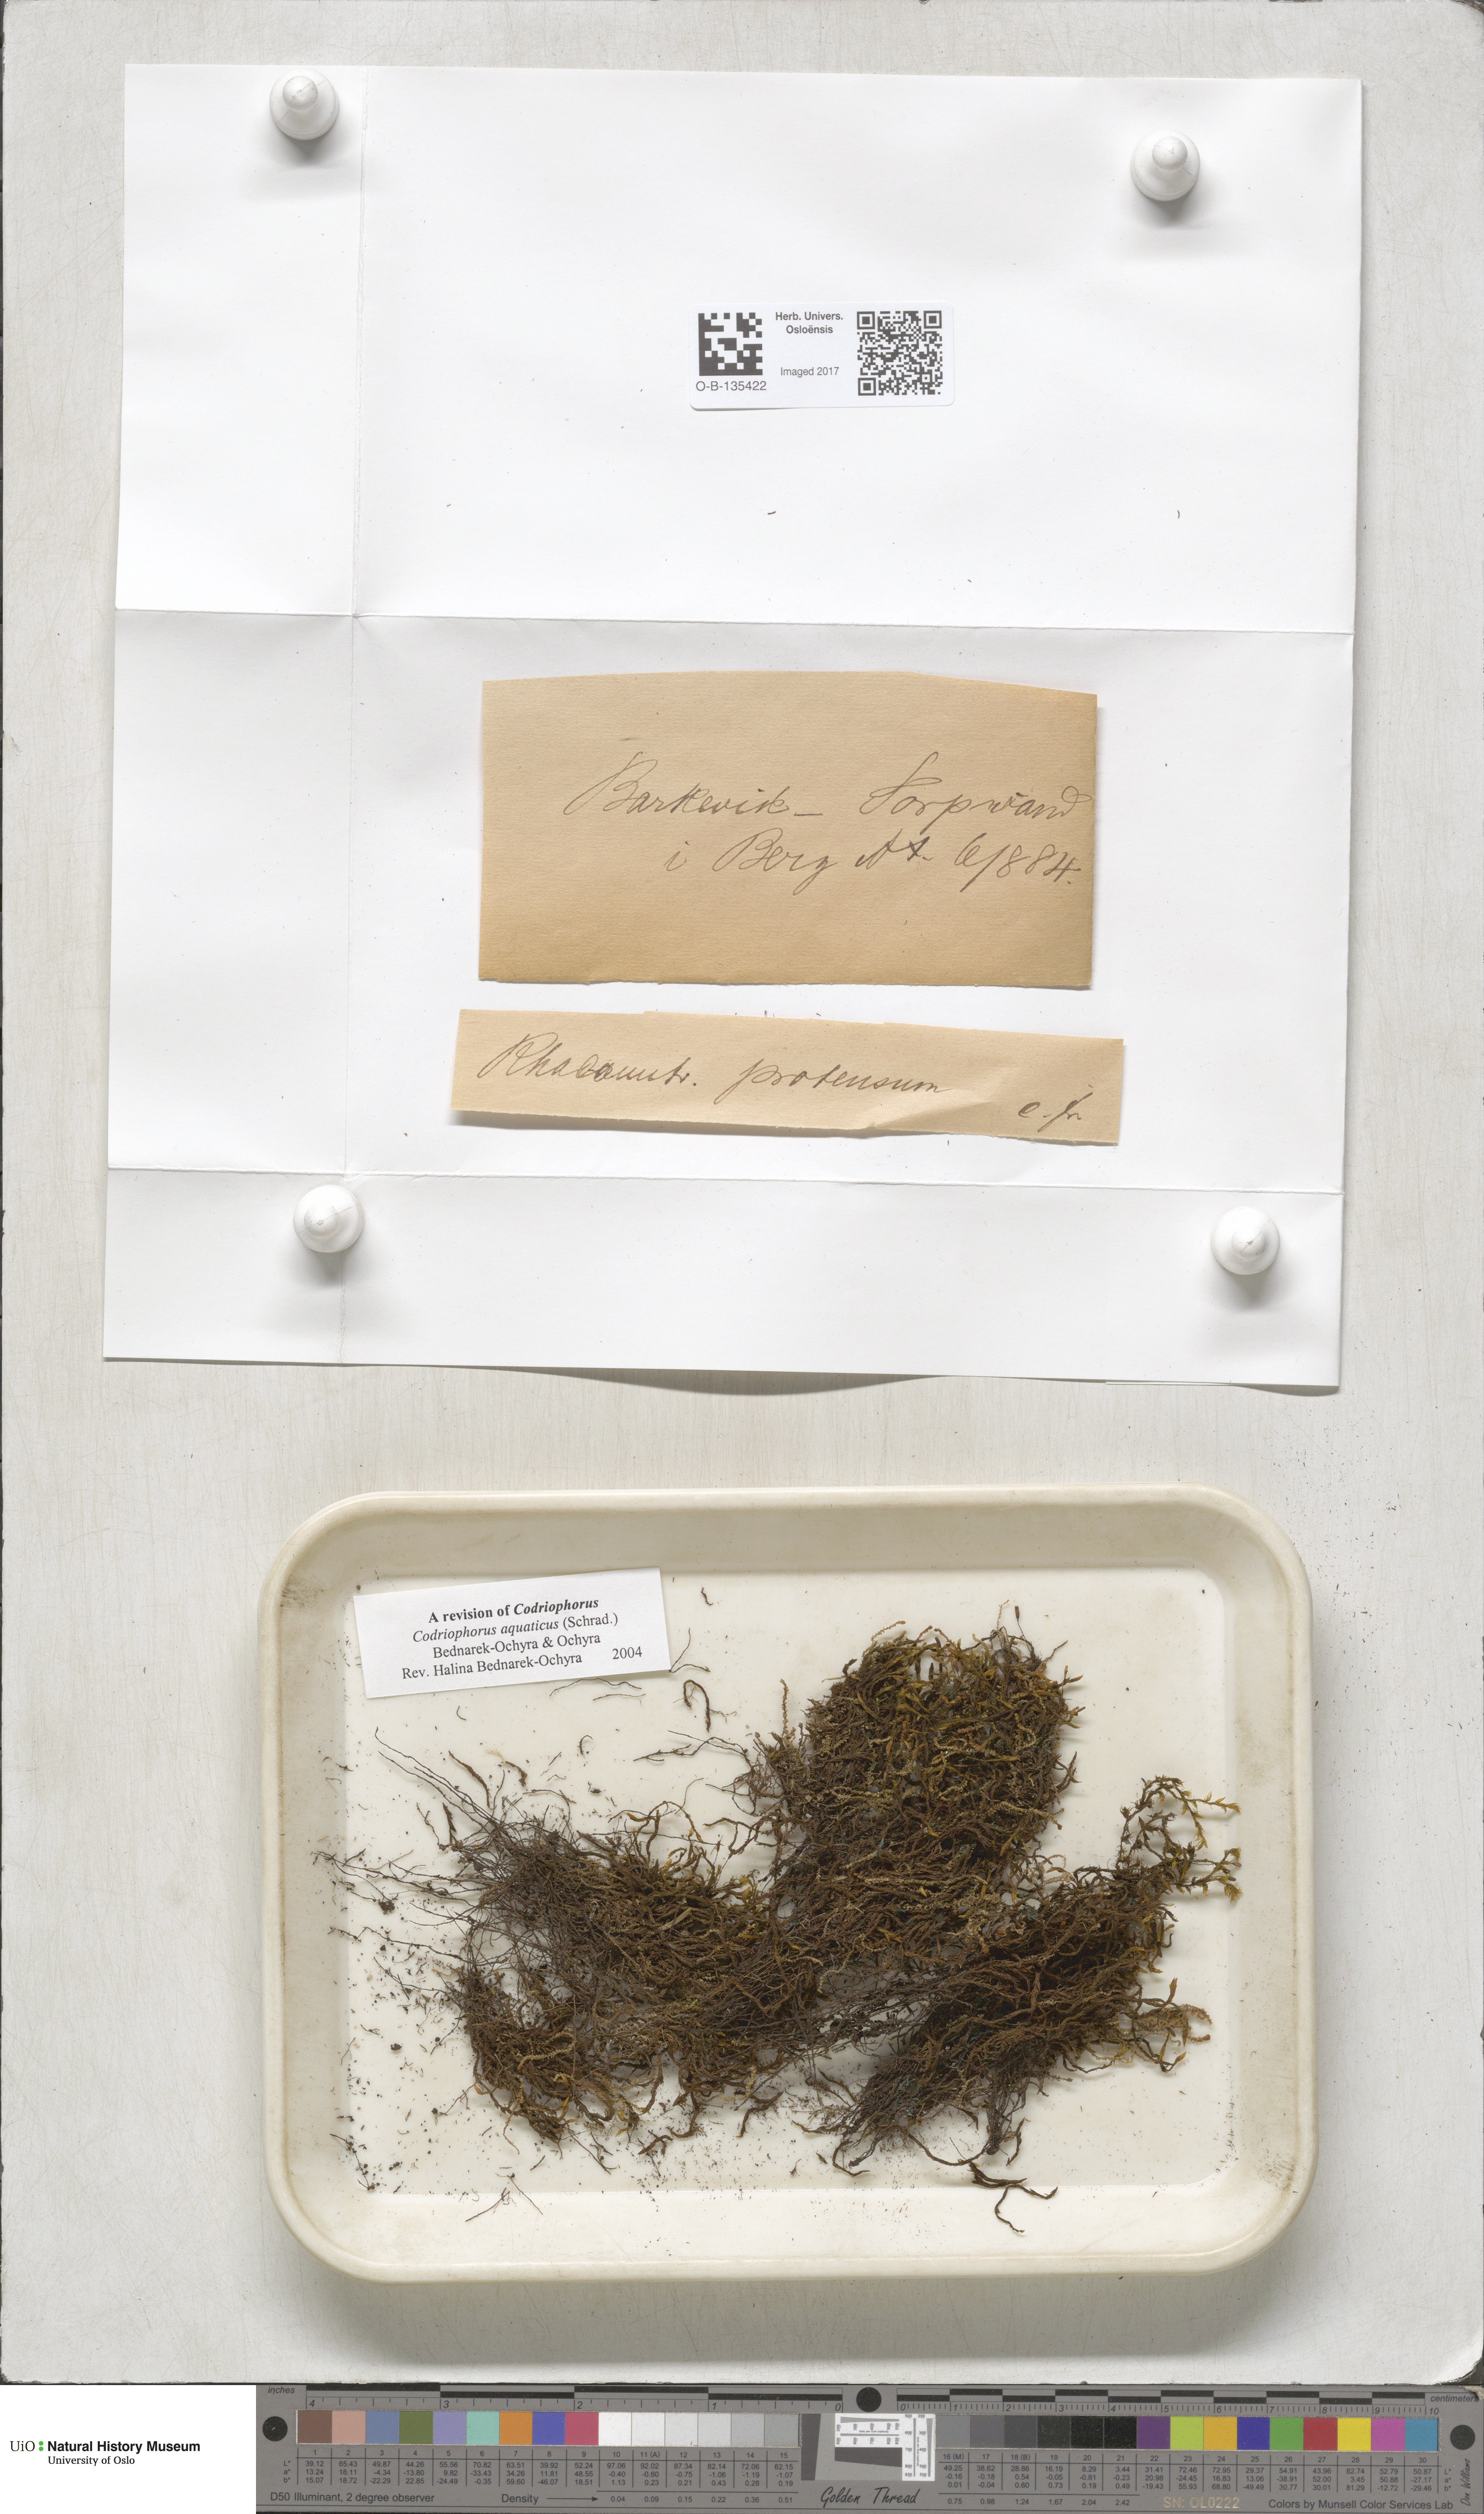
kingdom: Plantae
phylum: Bryophyta
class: Bryopsida
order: Grimmiales
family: Grimmiaceae
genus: Codriophorus
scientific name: Codriophorus aquaticus
